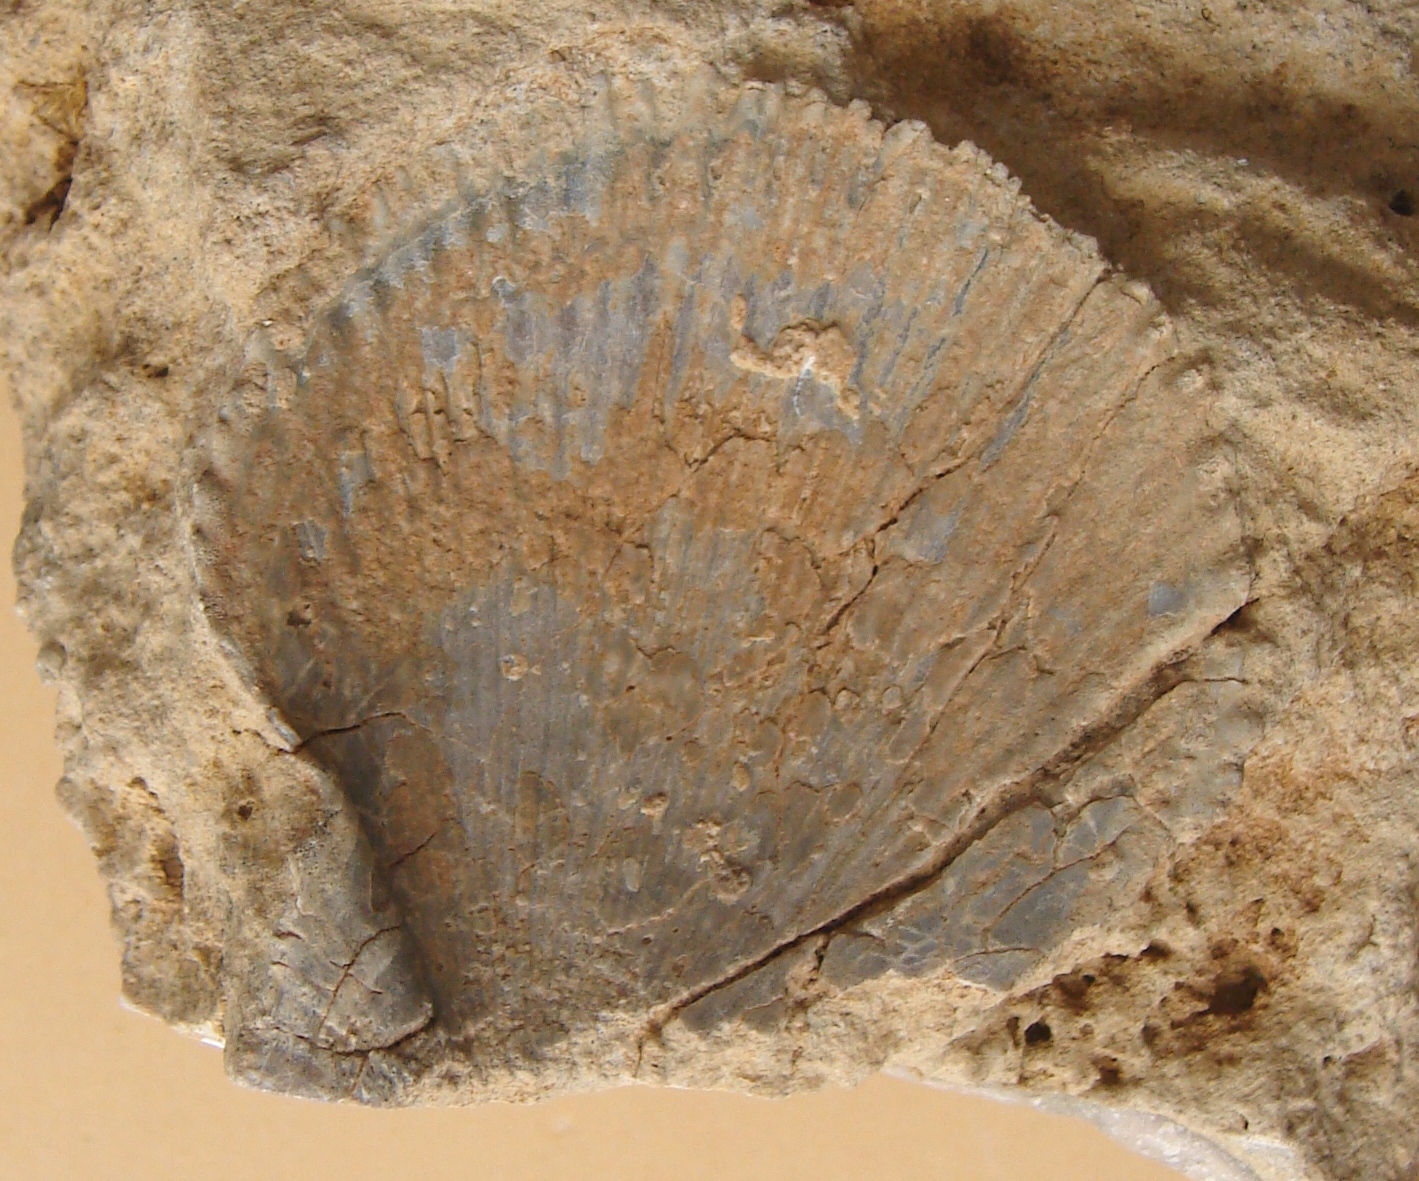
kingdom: Animalia
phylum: Mollusca
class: Bivalvia
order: Pectinida
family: Pectinidae
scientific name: Pectinidae
